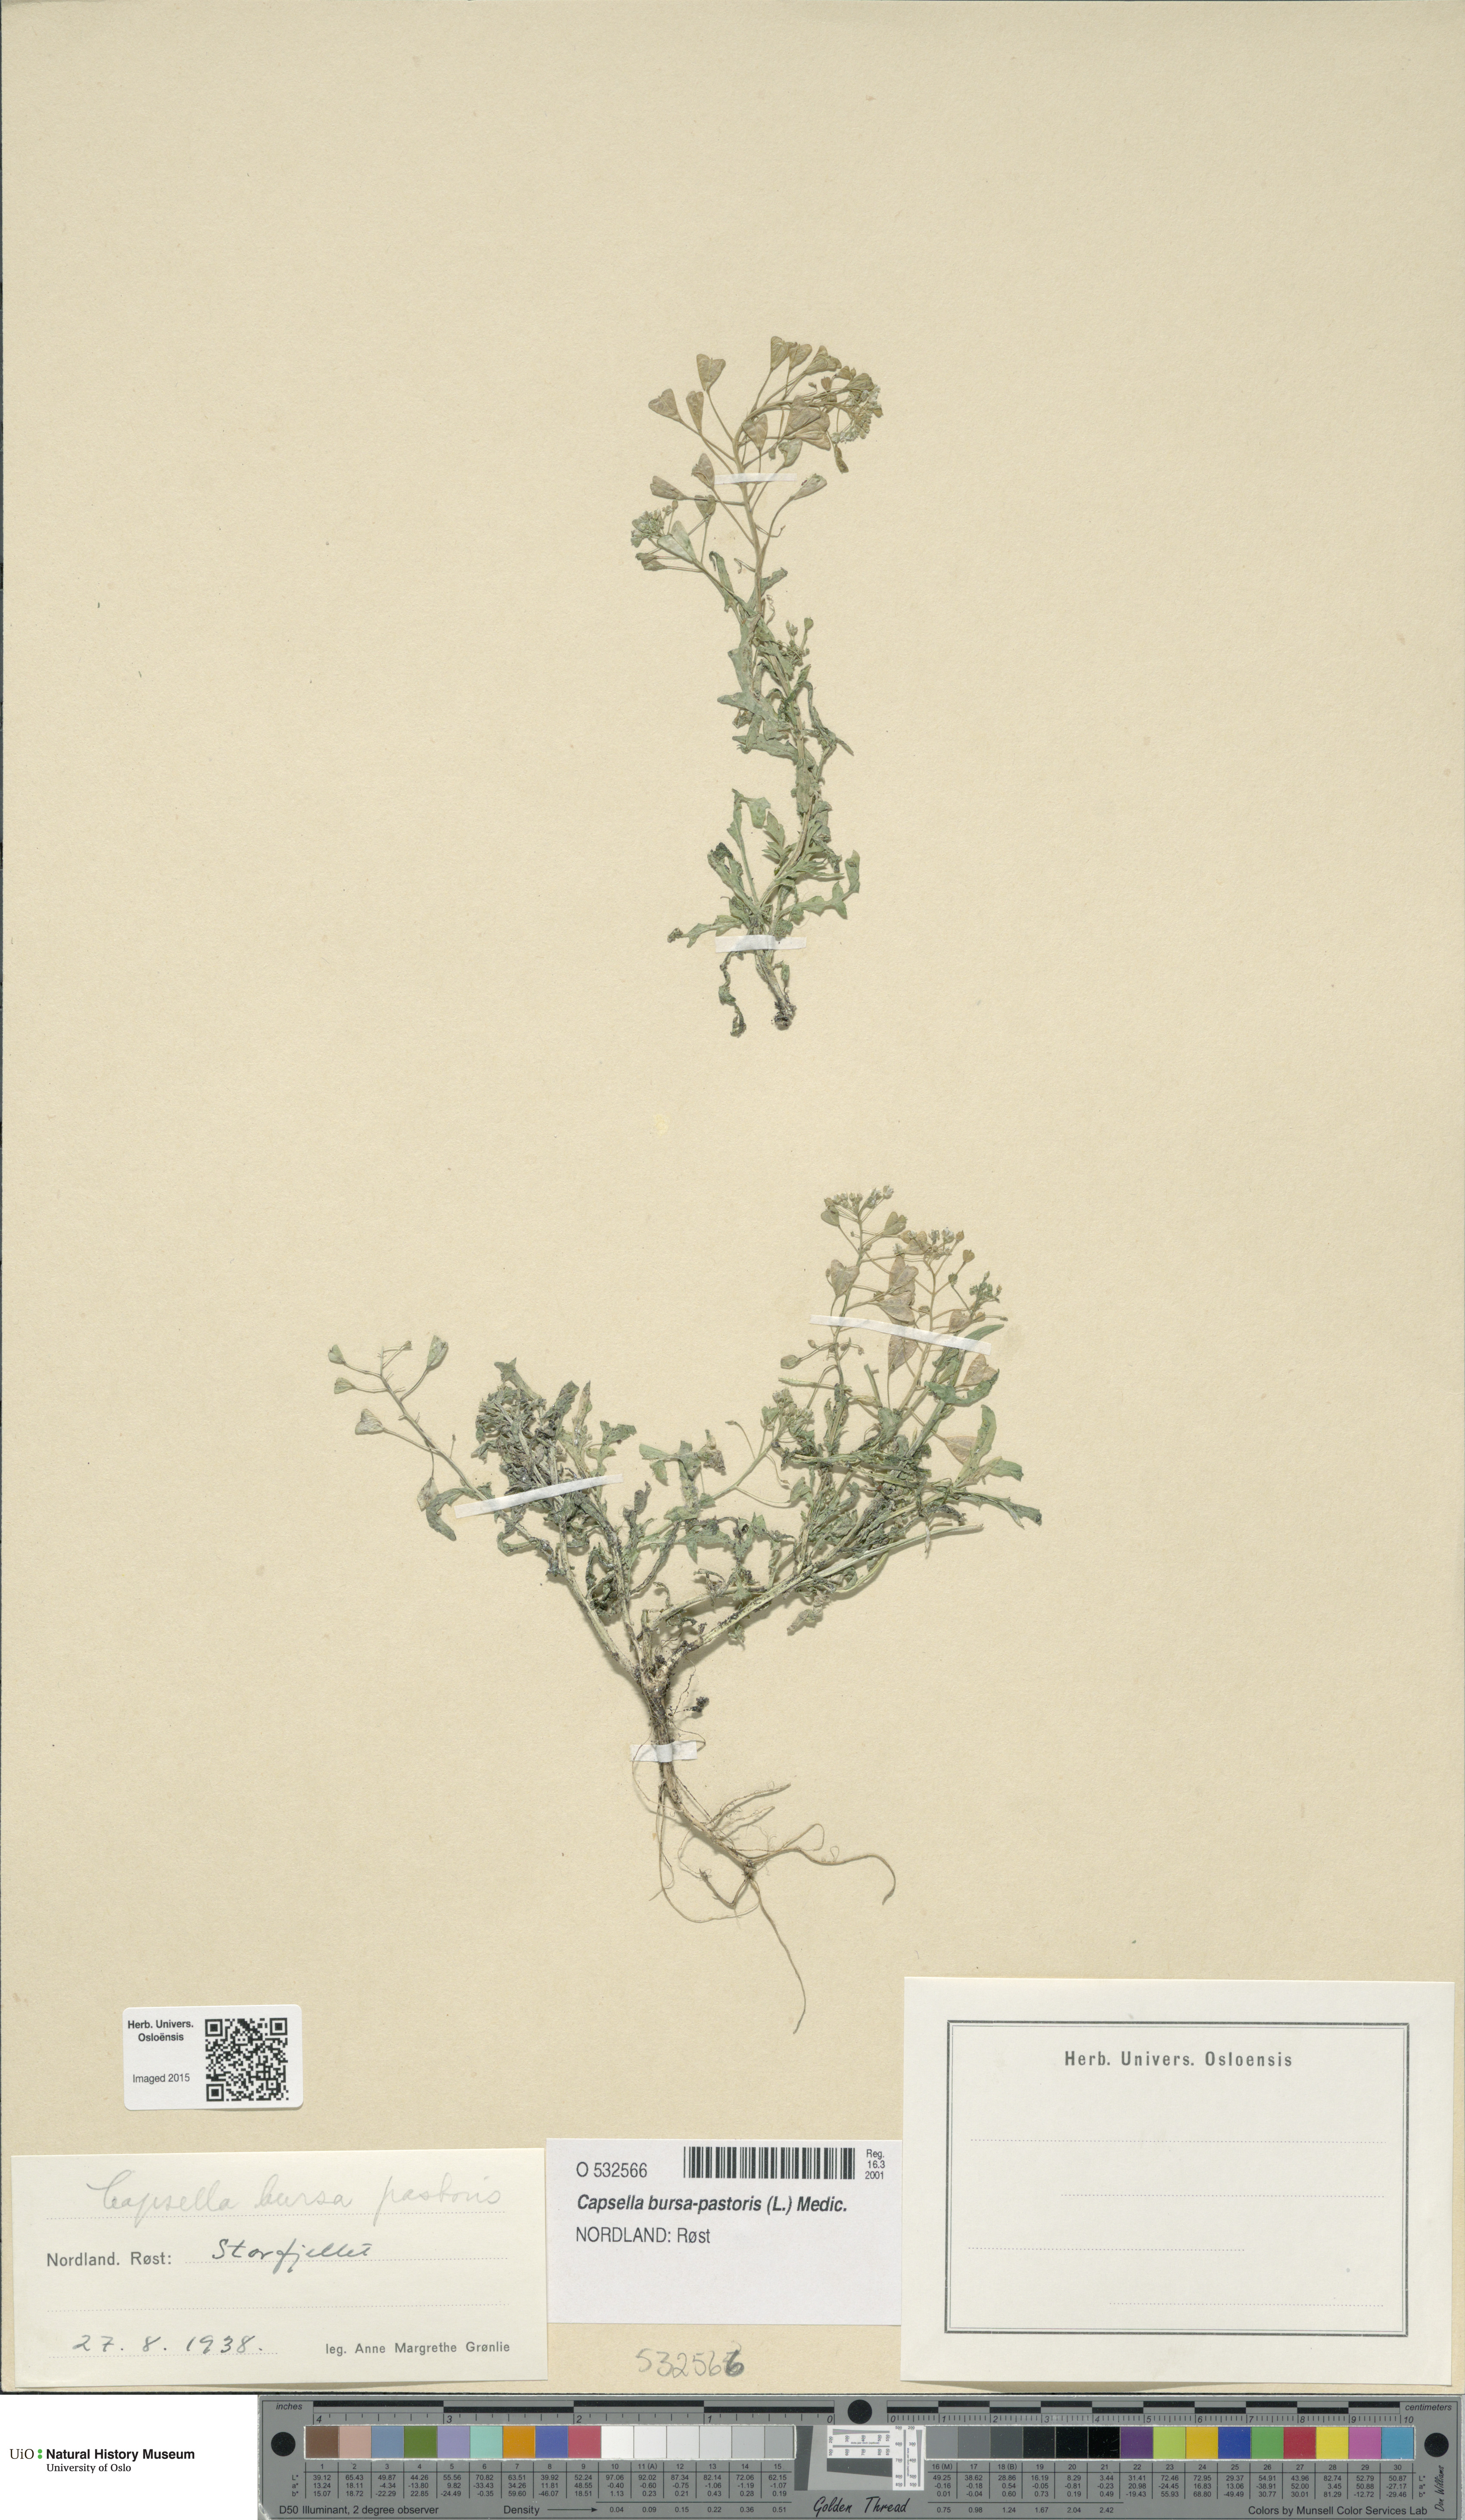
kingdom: Plantae
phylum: Tracheophyta
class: Magnoliopsida
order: Brassicales
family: Brassicaceae
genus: Capsella
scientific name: Capsella bursa-pastoris
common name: Shepherd's purse
